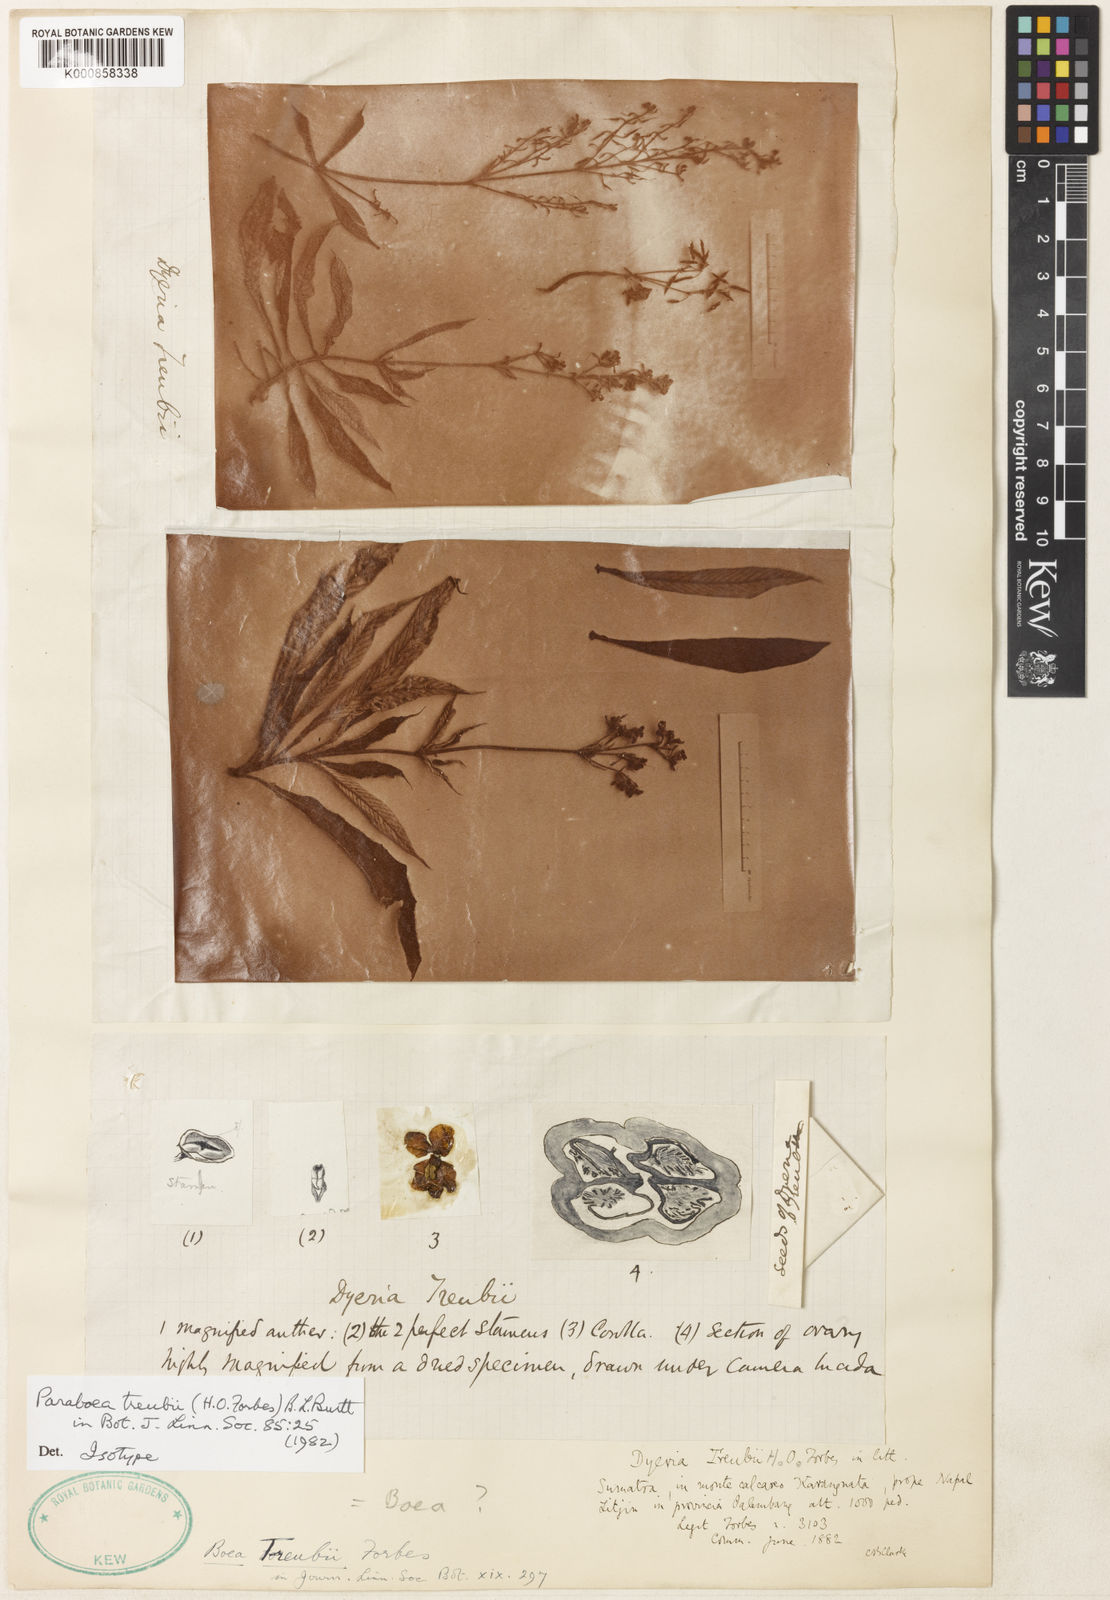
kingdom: Plantae
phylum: Tracheophyta
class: Magnoliopsida
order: Lamiales
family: Gesneriaceae
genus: Paraboea
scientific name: Paraboea treubii
